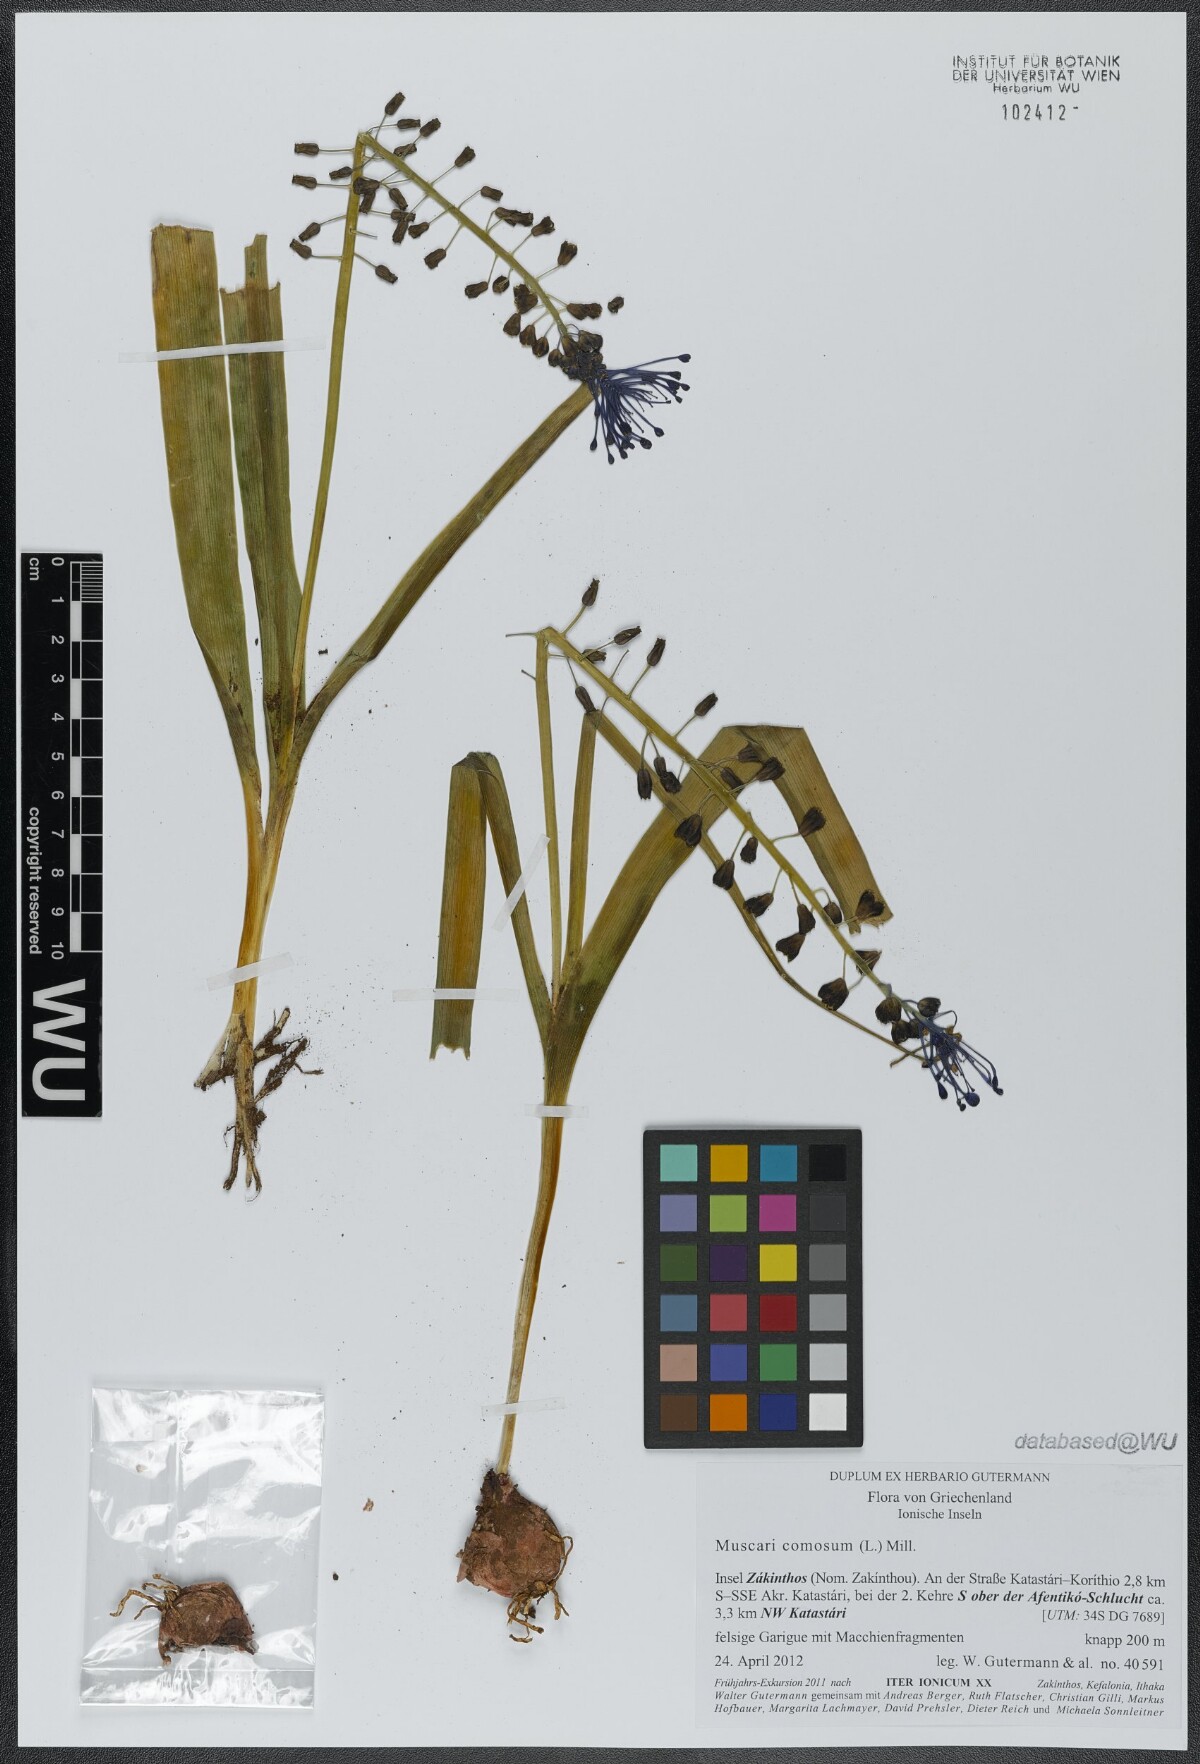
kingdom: Plantae
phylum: Tracheophyta
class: Liliopsida
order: Asparagales
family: Asparagaceae
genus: Muscari
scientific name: Muscari comosum
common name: Tassel hyacinth
